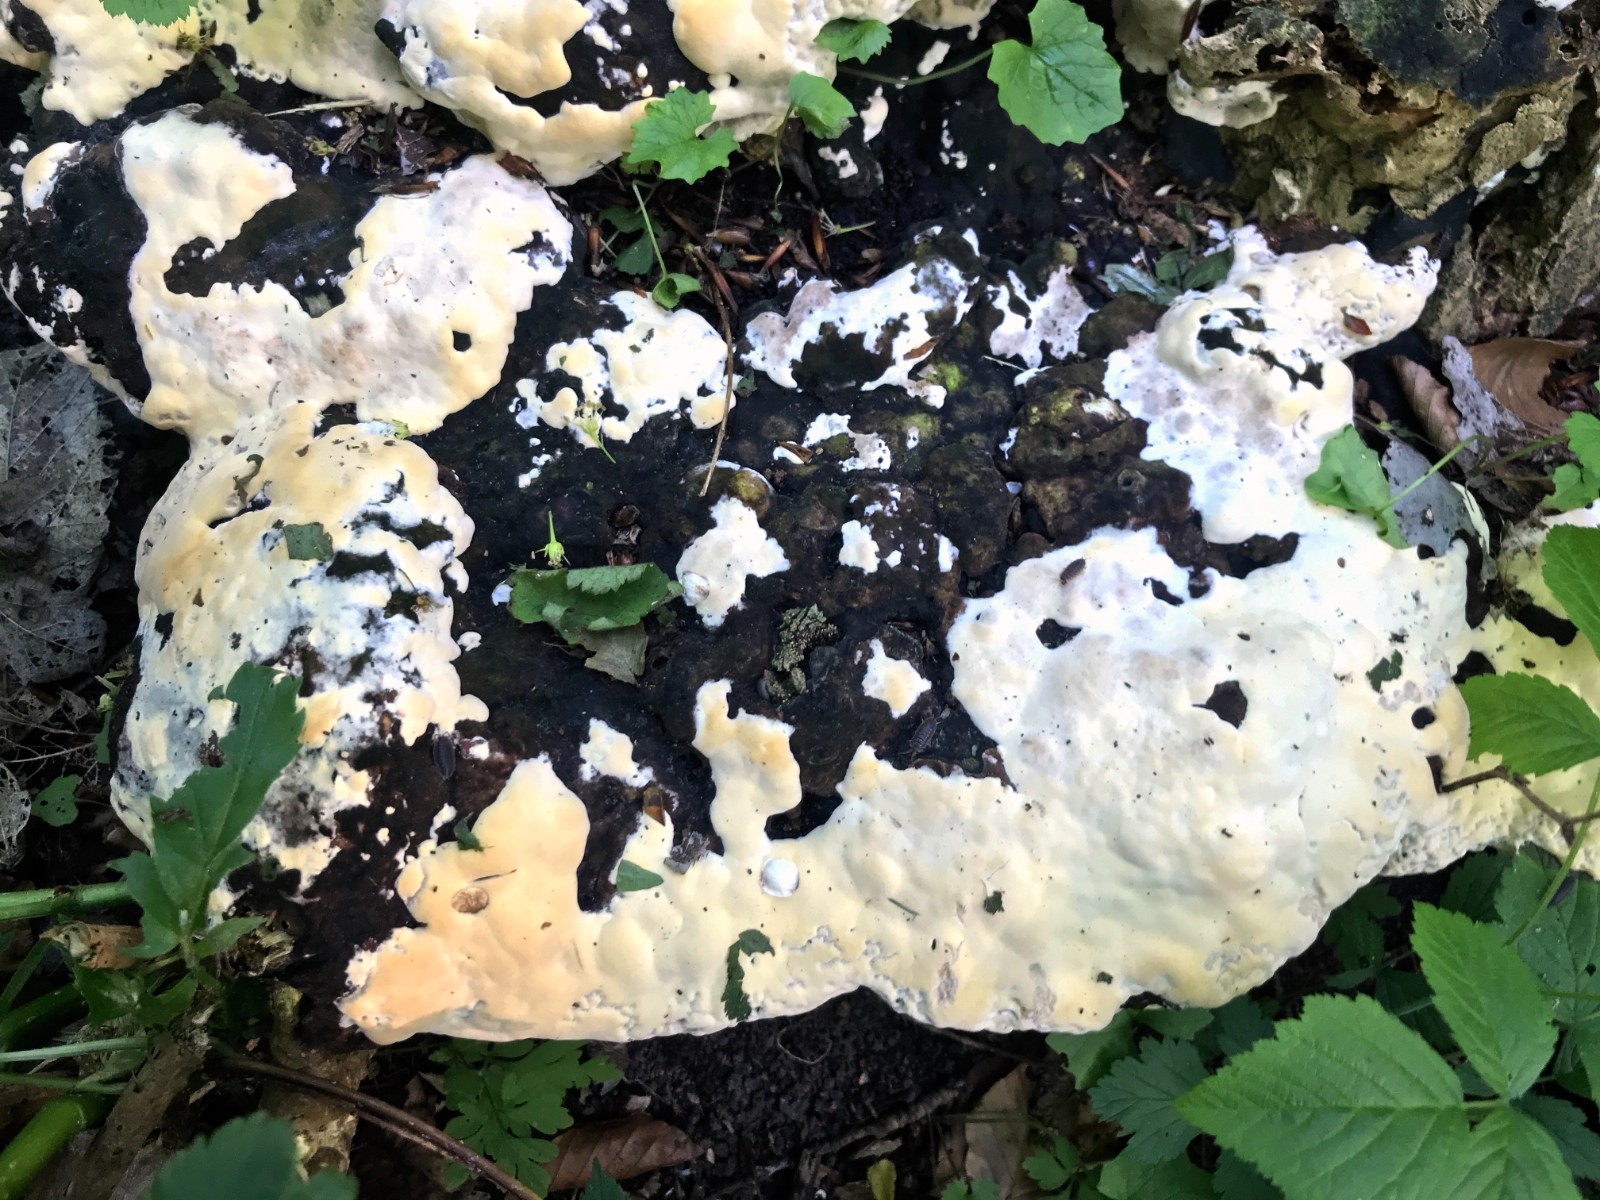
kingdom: Fungi
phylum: Basidiomycota
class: Agaricomycetes
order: Polyporales
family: Polyporaceae
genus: Vanderbylia
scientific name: Vanderbylia fraxinea
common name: stor kanelporesvamp
